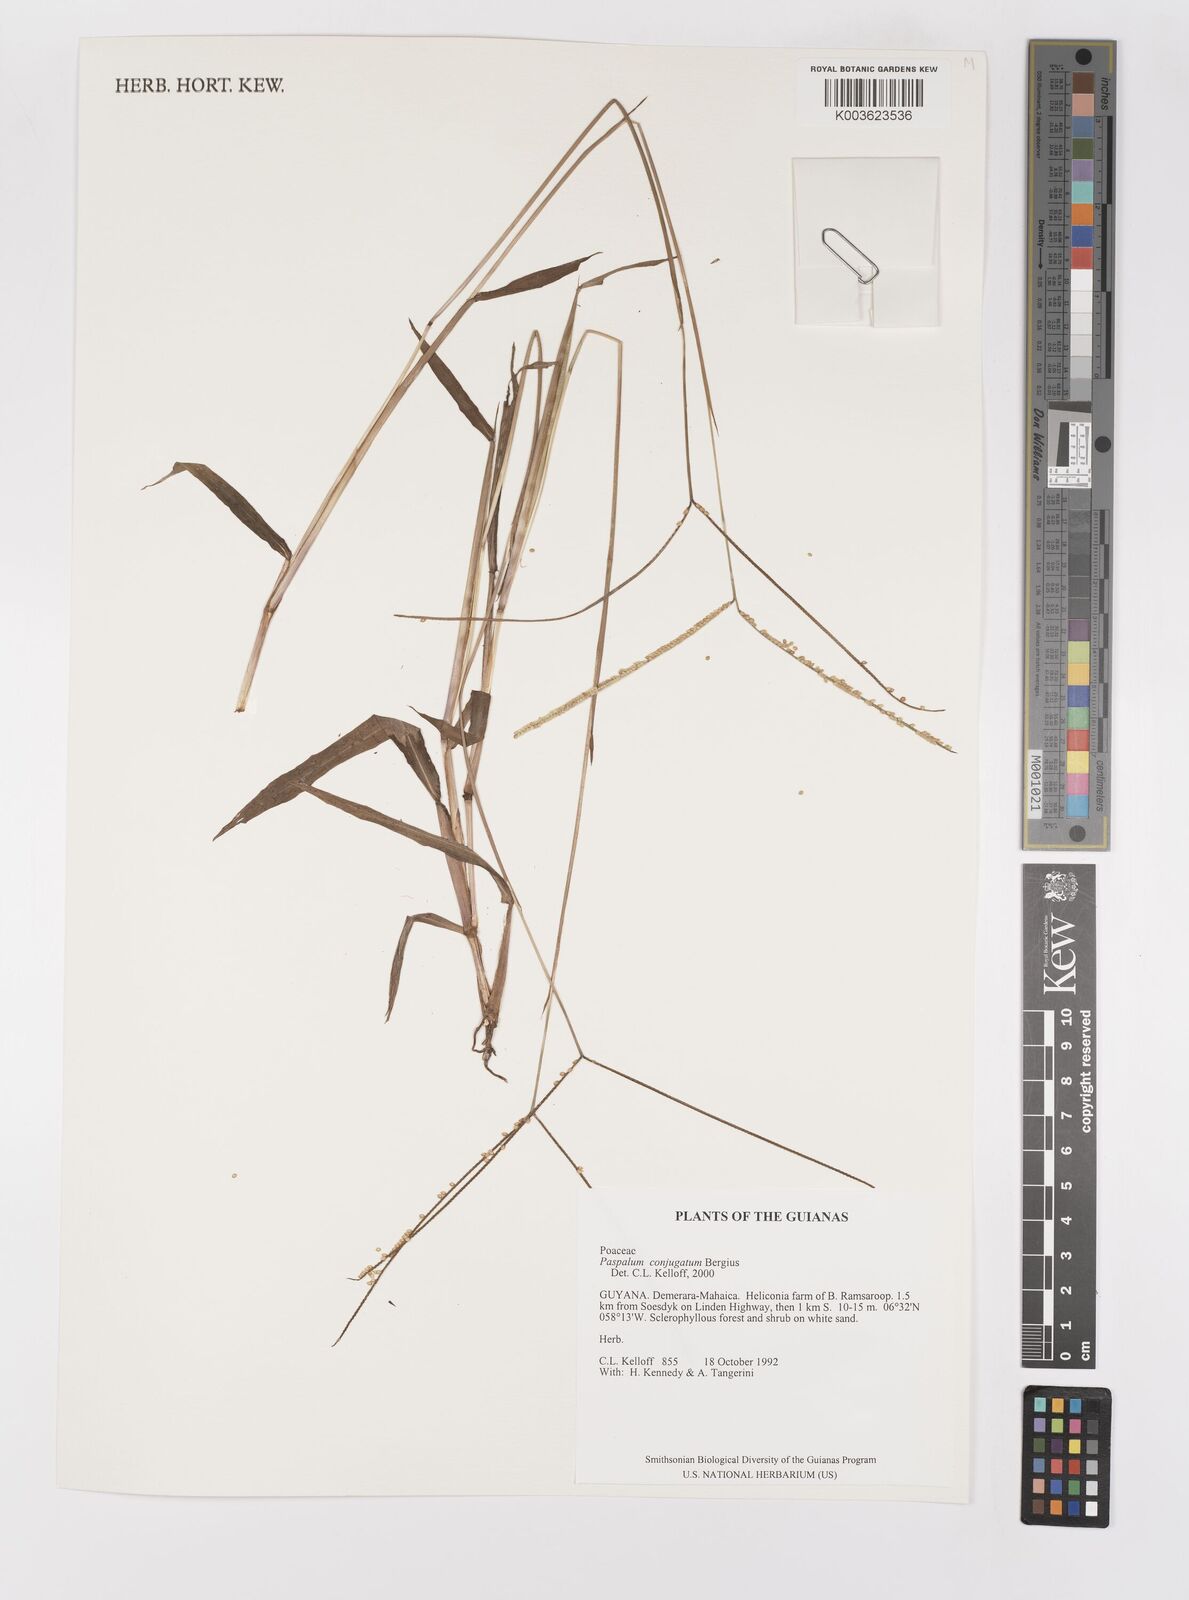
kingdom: Plantae
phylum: Tracheophyta
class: Liliopsida
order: Poales
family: Poaceae
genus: Paspalum
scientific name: Paspalum conjugatum
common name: Hilograss
